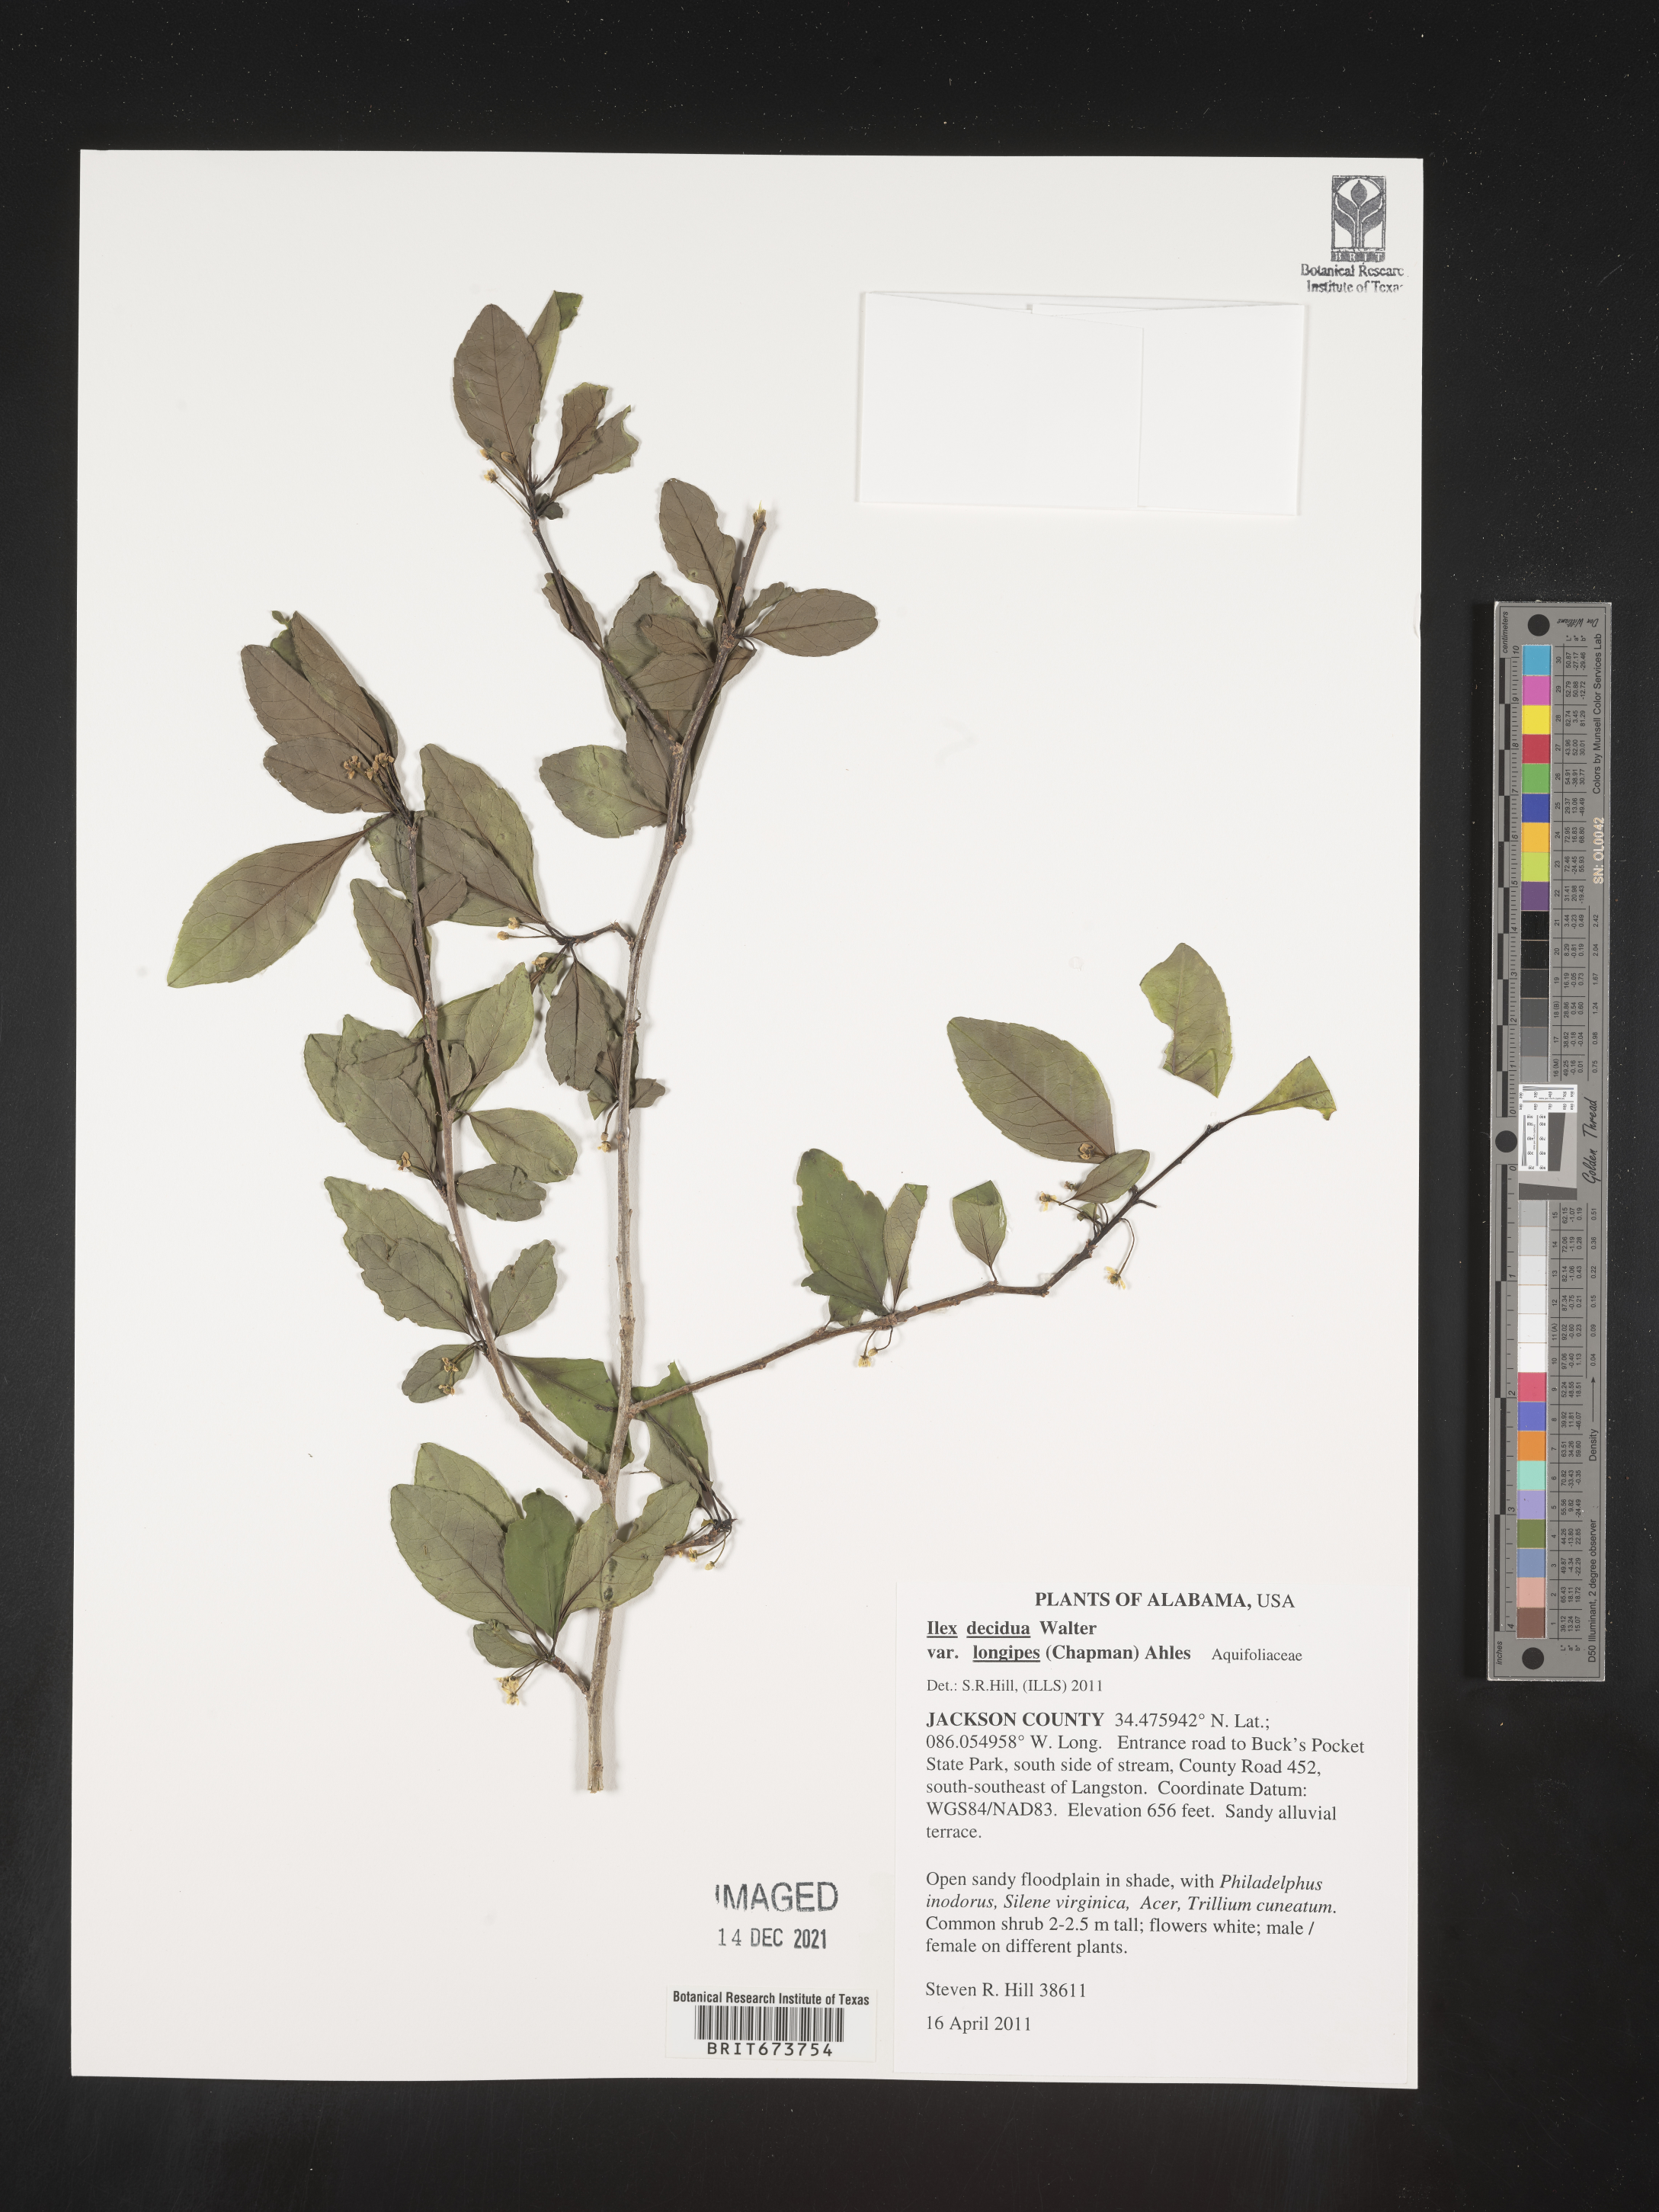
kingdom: Plantae
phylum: Tracheophyta
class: Magnoliopsida
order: Aquifoliales
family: Aquifoliaceae
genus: Ilex
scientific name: Ilex decidua
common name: Possum-haw
